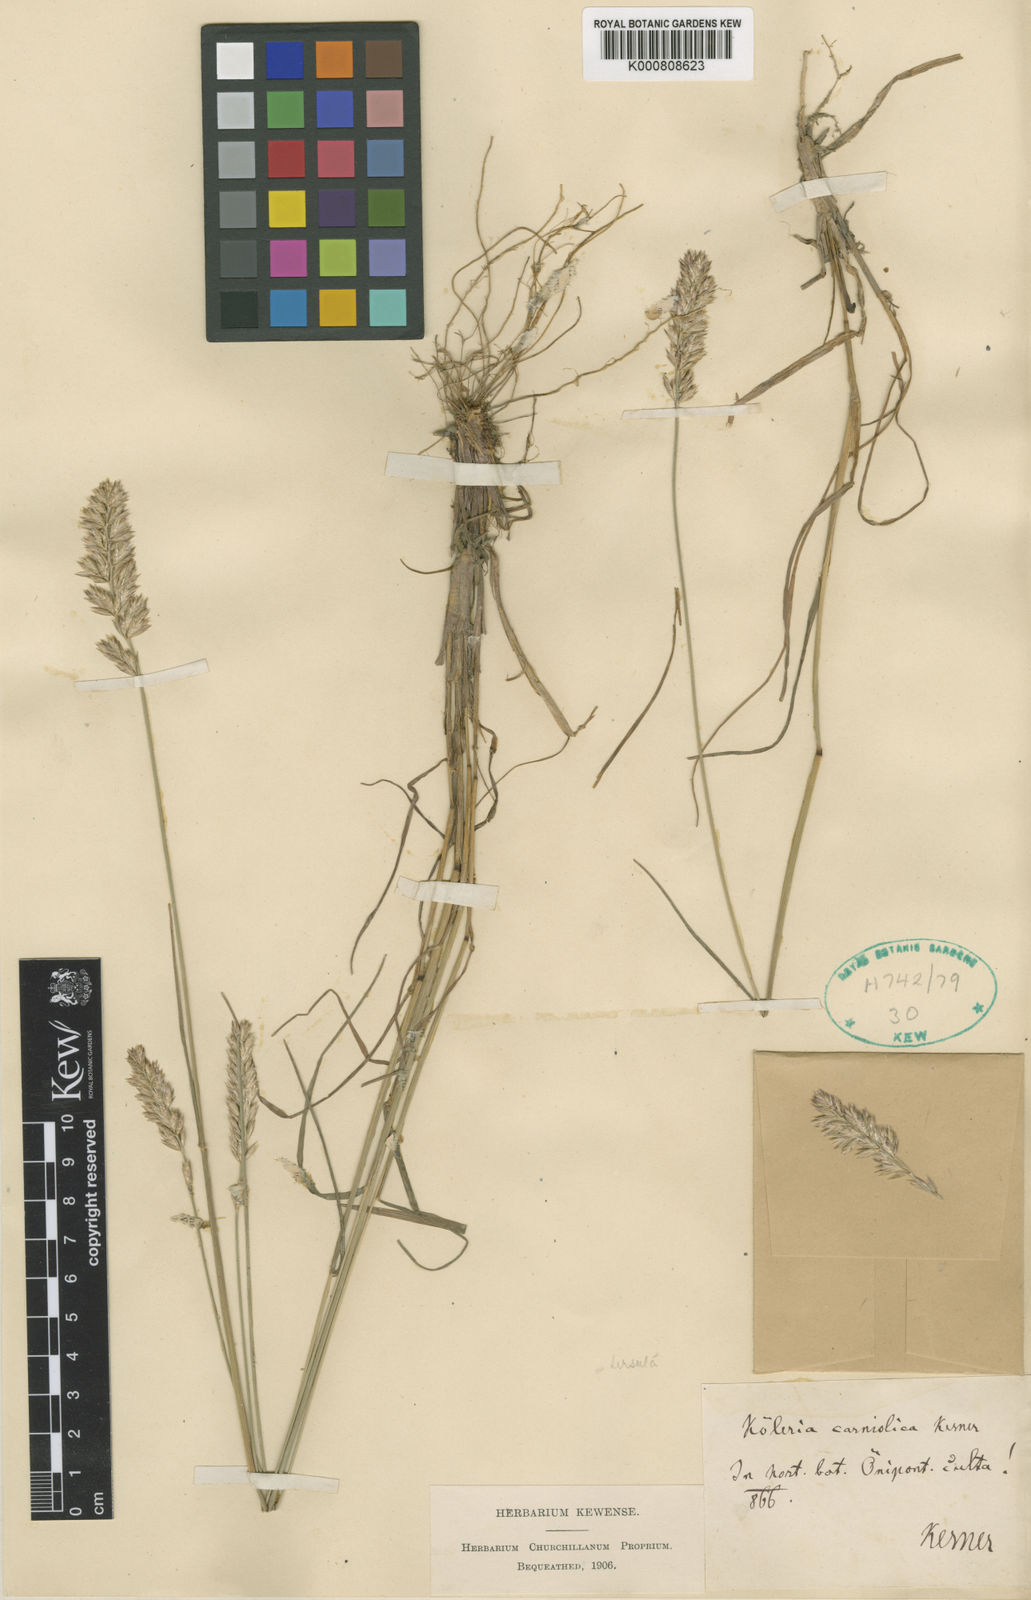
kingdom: Plantae
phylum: Tracheophyta
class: Liliopsida
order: Poales
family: Poaceae
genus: Koeleria
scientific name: Koeleria eriostachya
